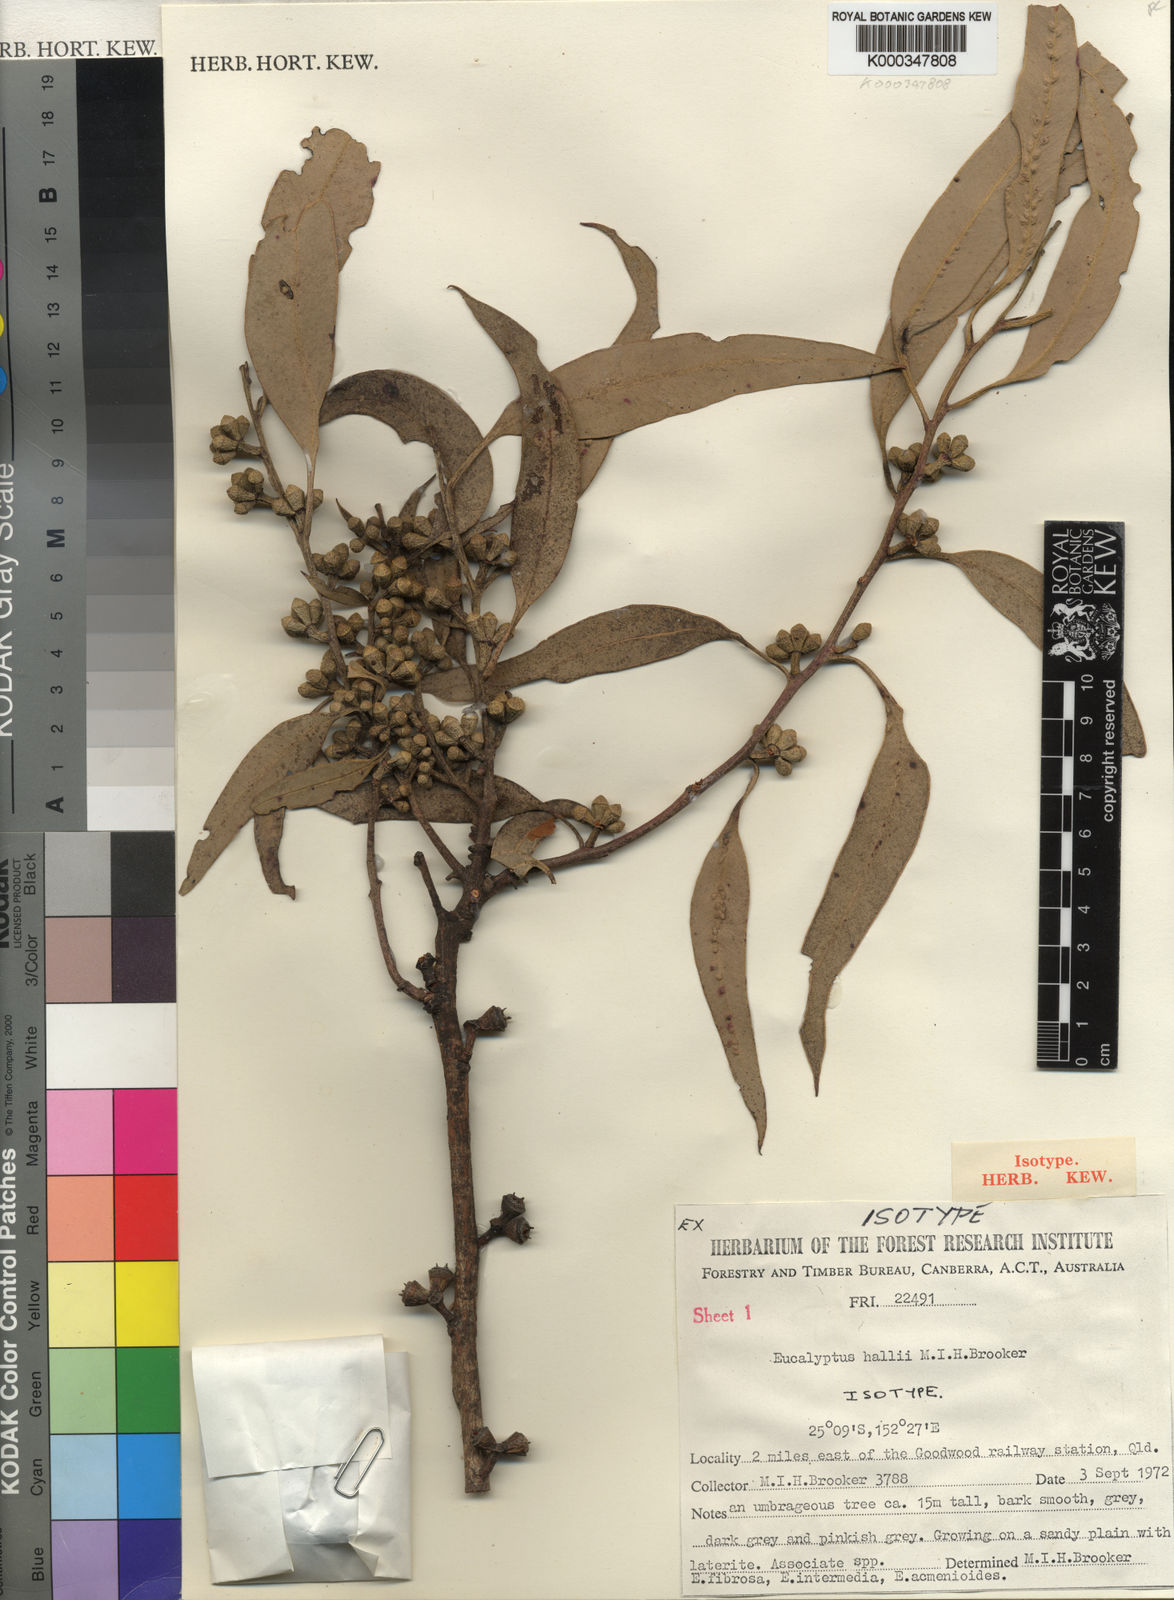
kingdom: Plantae
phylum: Tracheophyta
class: Magnoliopsida
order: Myrtales
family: Myrtaceae
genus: Eucalyptus
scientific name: Eucalyptus hallii
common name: Goodwood gum
